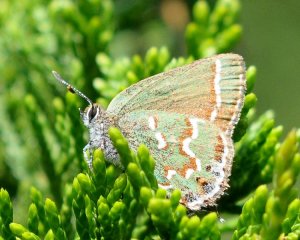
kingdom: Animalia
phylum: Arthropoda
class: Insecta
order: Lepidoptera
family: Lycaenidae
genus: Mitoura
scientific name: Mitoura gryneus
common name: Juniper Hairstreak
